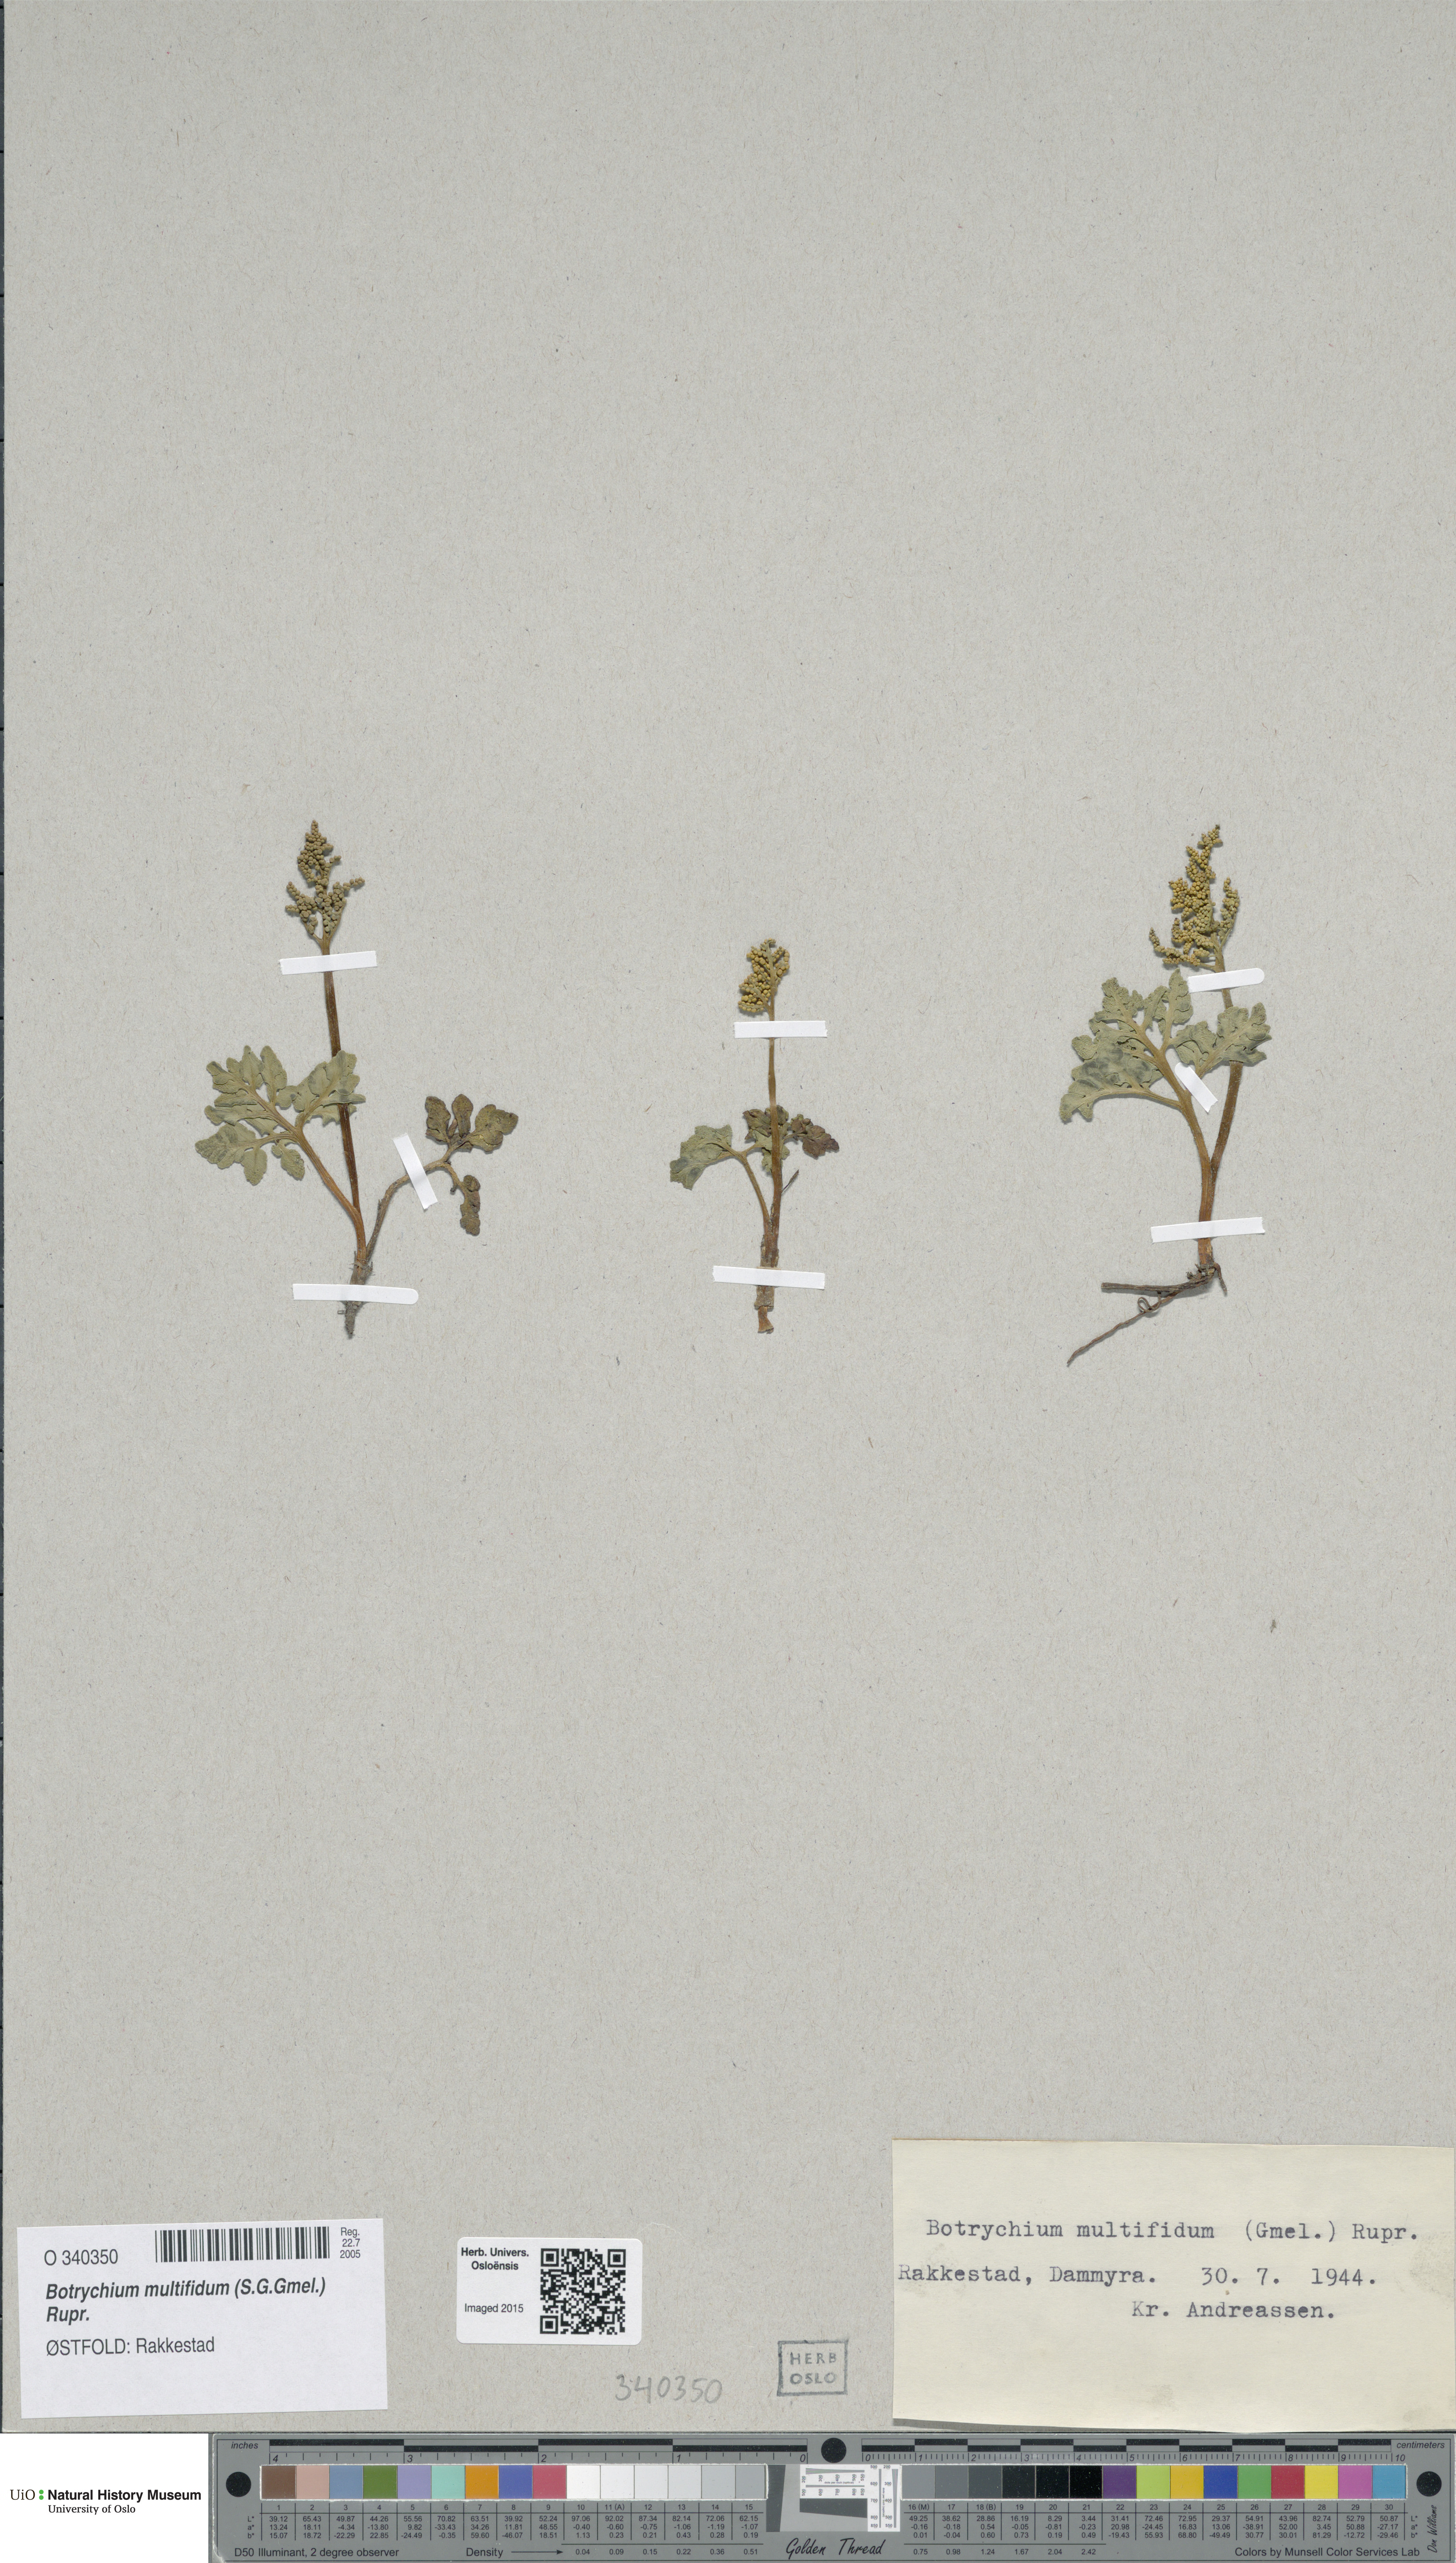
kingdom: Plantae
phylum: Tracheophyta
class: Polypodiopsida
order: Ophioglossales
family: Ophioglossaceae
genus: Sceptridium
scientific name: Sceptridium multifidum
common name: Leathery grape fern
